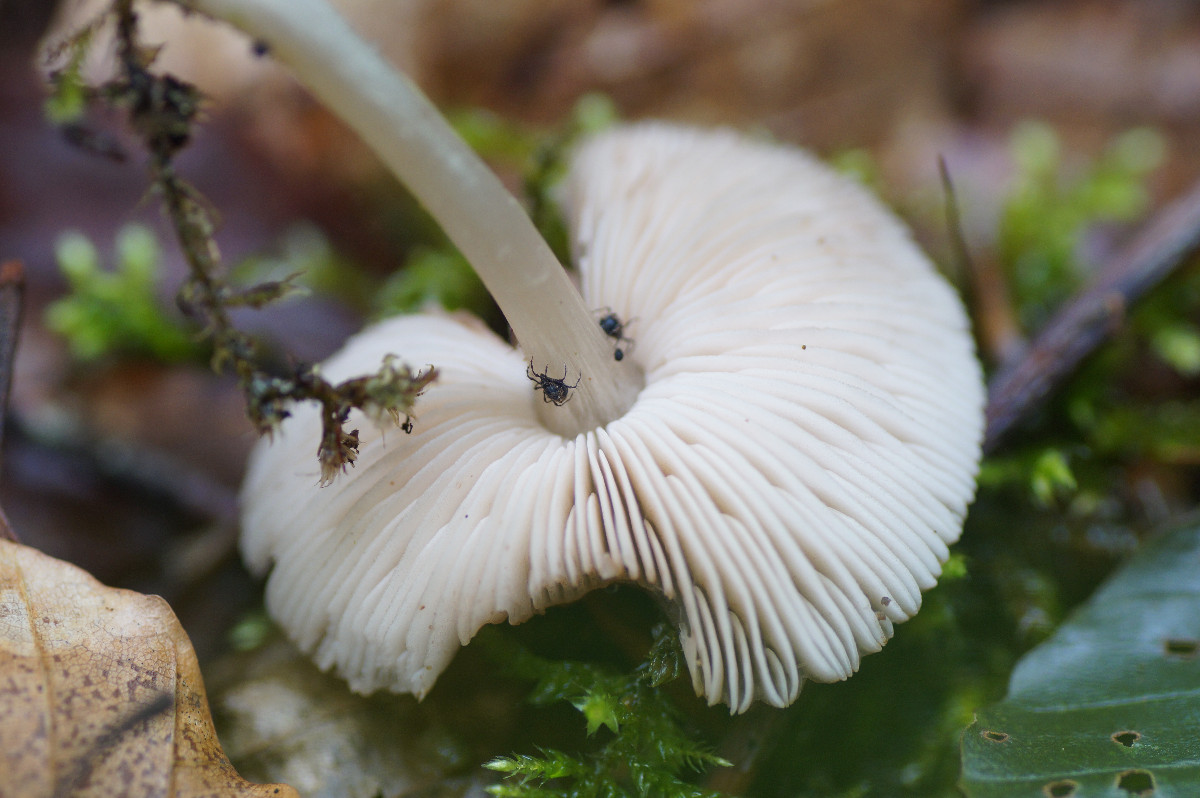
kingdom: Fungi
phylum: Basidiomycota
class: Agaricomycetes
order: Agaricales
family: Pluteaceae
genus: Pluteus
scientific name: Pluteus phlebophorus
